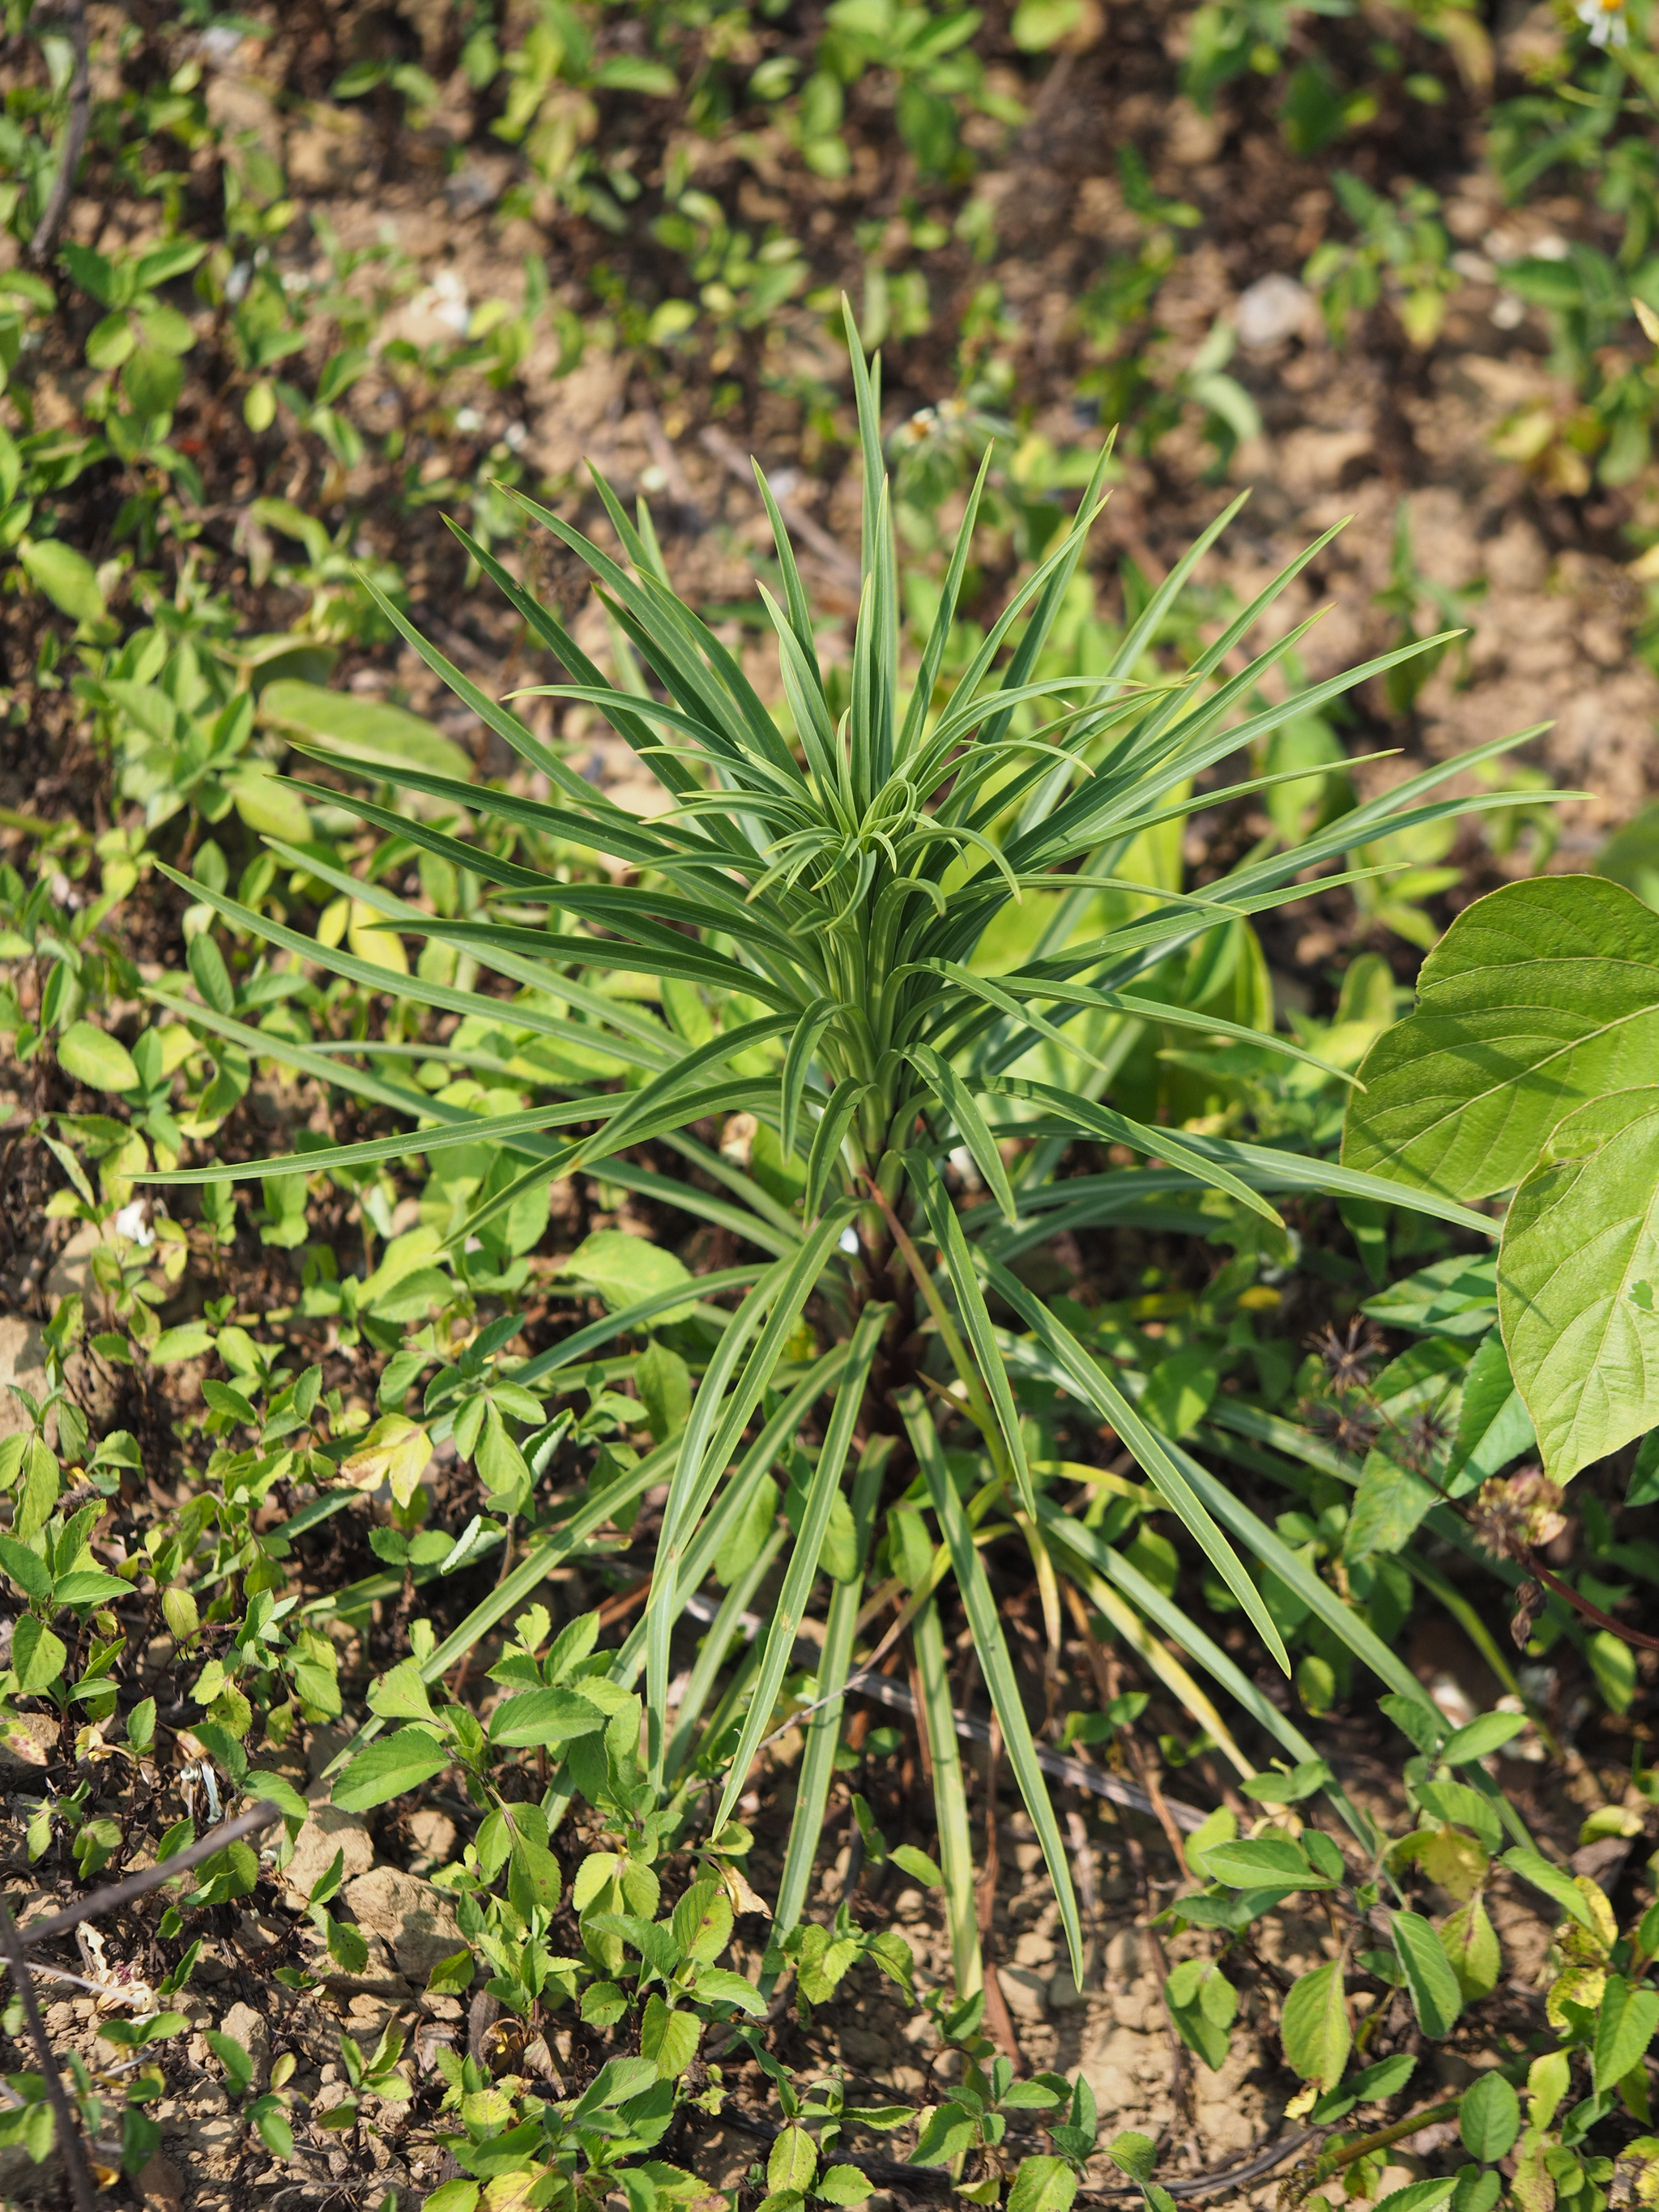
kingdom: Plantae
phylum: Tracheophyta
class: Liliopsida
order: Liliales
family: Liliaceae
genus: Lilium
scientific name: Lilium formosanum
